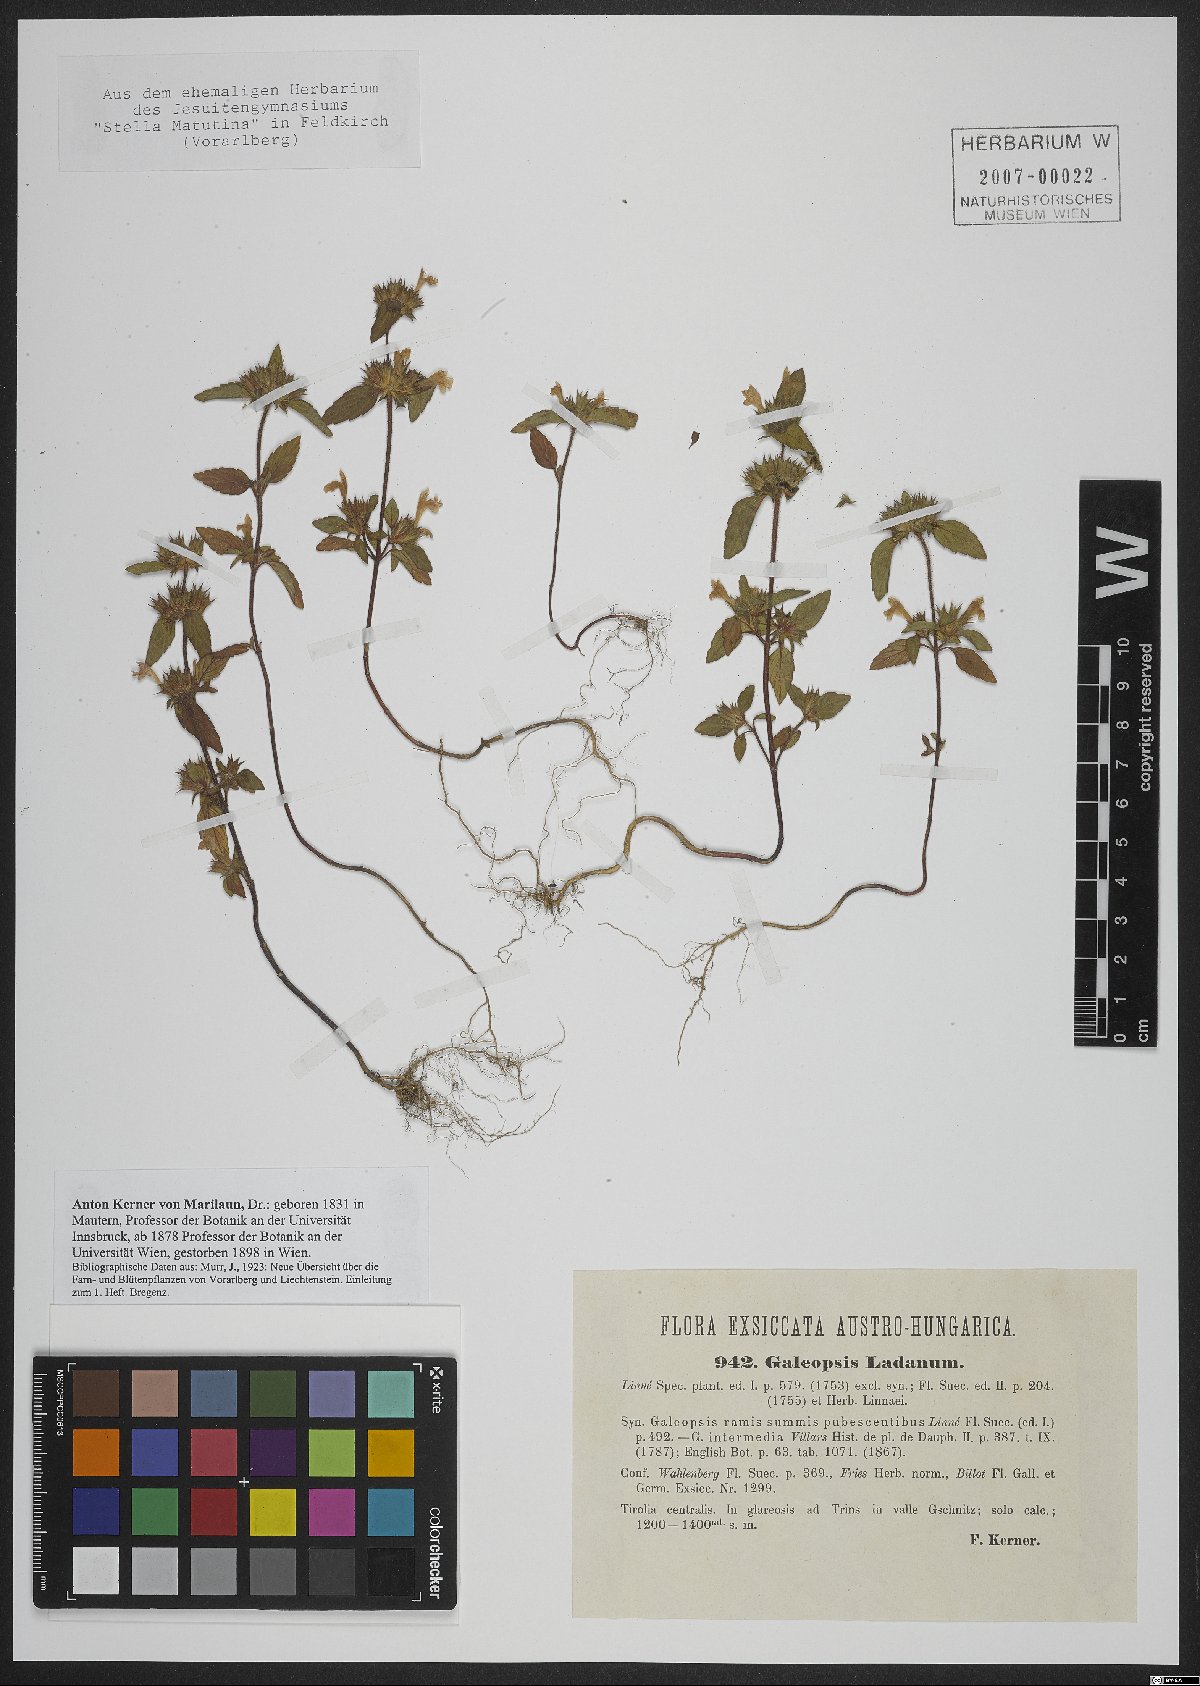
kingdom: Plantae
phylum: Tracheophyta
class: Magnoliopsida
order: Lamiales
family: Lamiaceae
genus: Galeopsis
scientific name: Galeopsis ladanum
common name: Broad-leaved hemp-nettle
